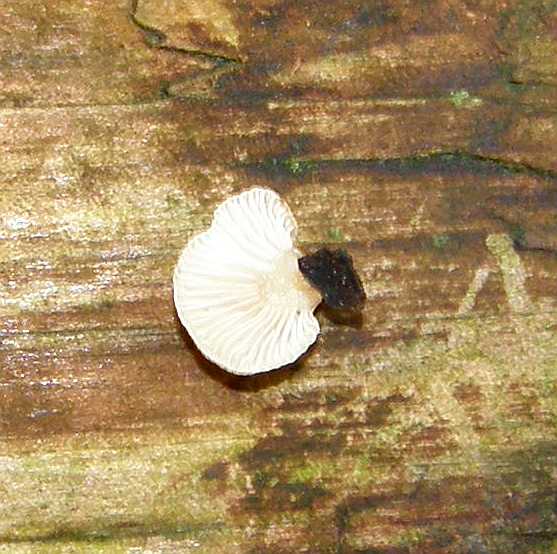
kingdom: Fungi
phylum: Basidiomycota
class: Agaricomycetes
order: Agaricales
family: Mycenaceae
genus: Panellus
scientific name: Panellus mitis
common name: mild epaulethat
